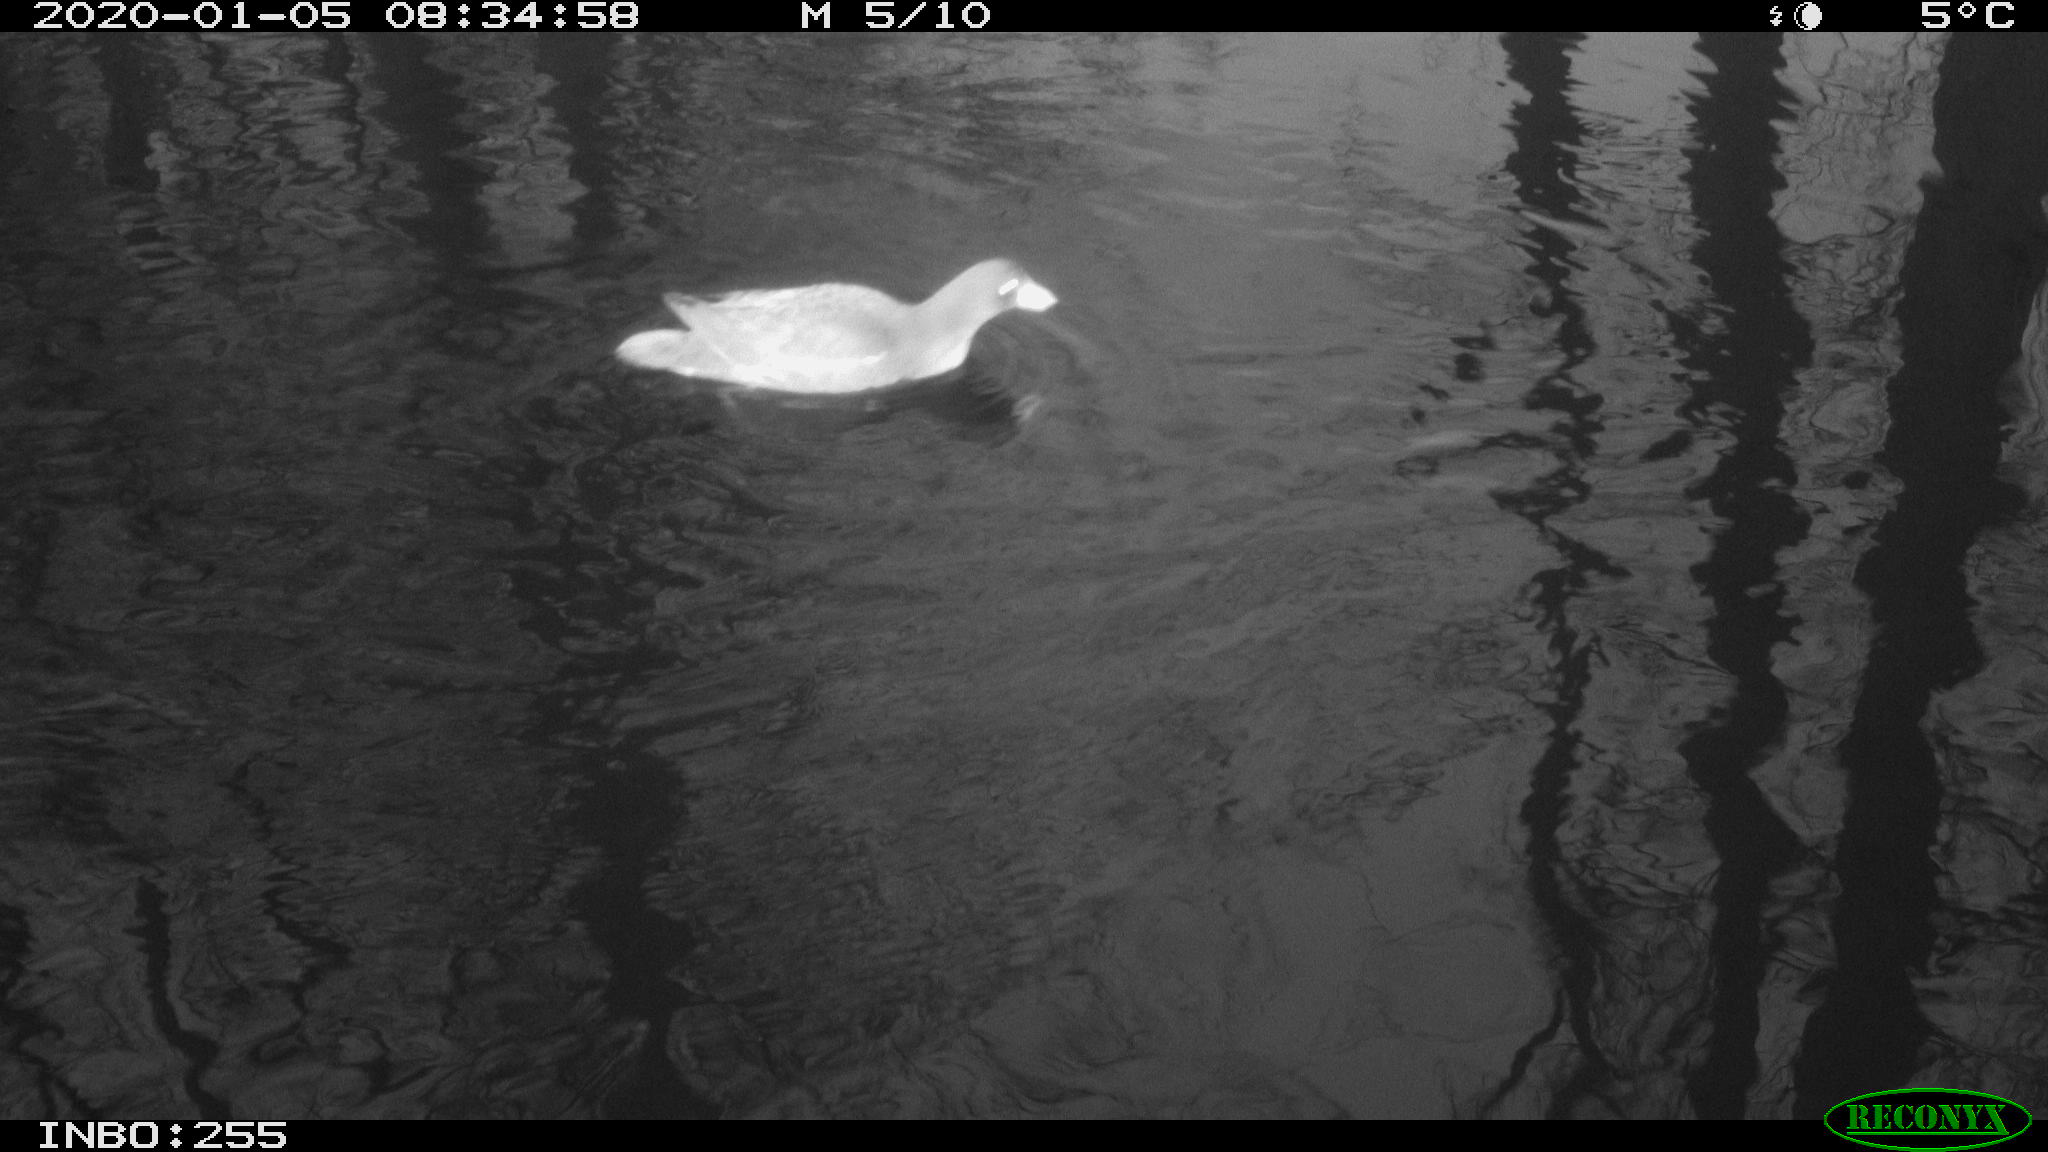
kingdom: Animalia
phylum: Chordata
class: Aves
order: Anseriformes
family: Anatidae
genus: Anas
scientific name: Anas platyrhynchos
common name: Mallard
